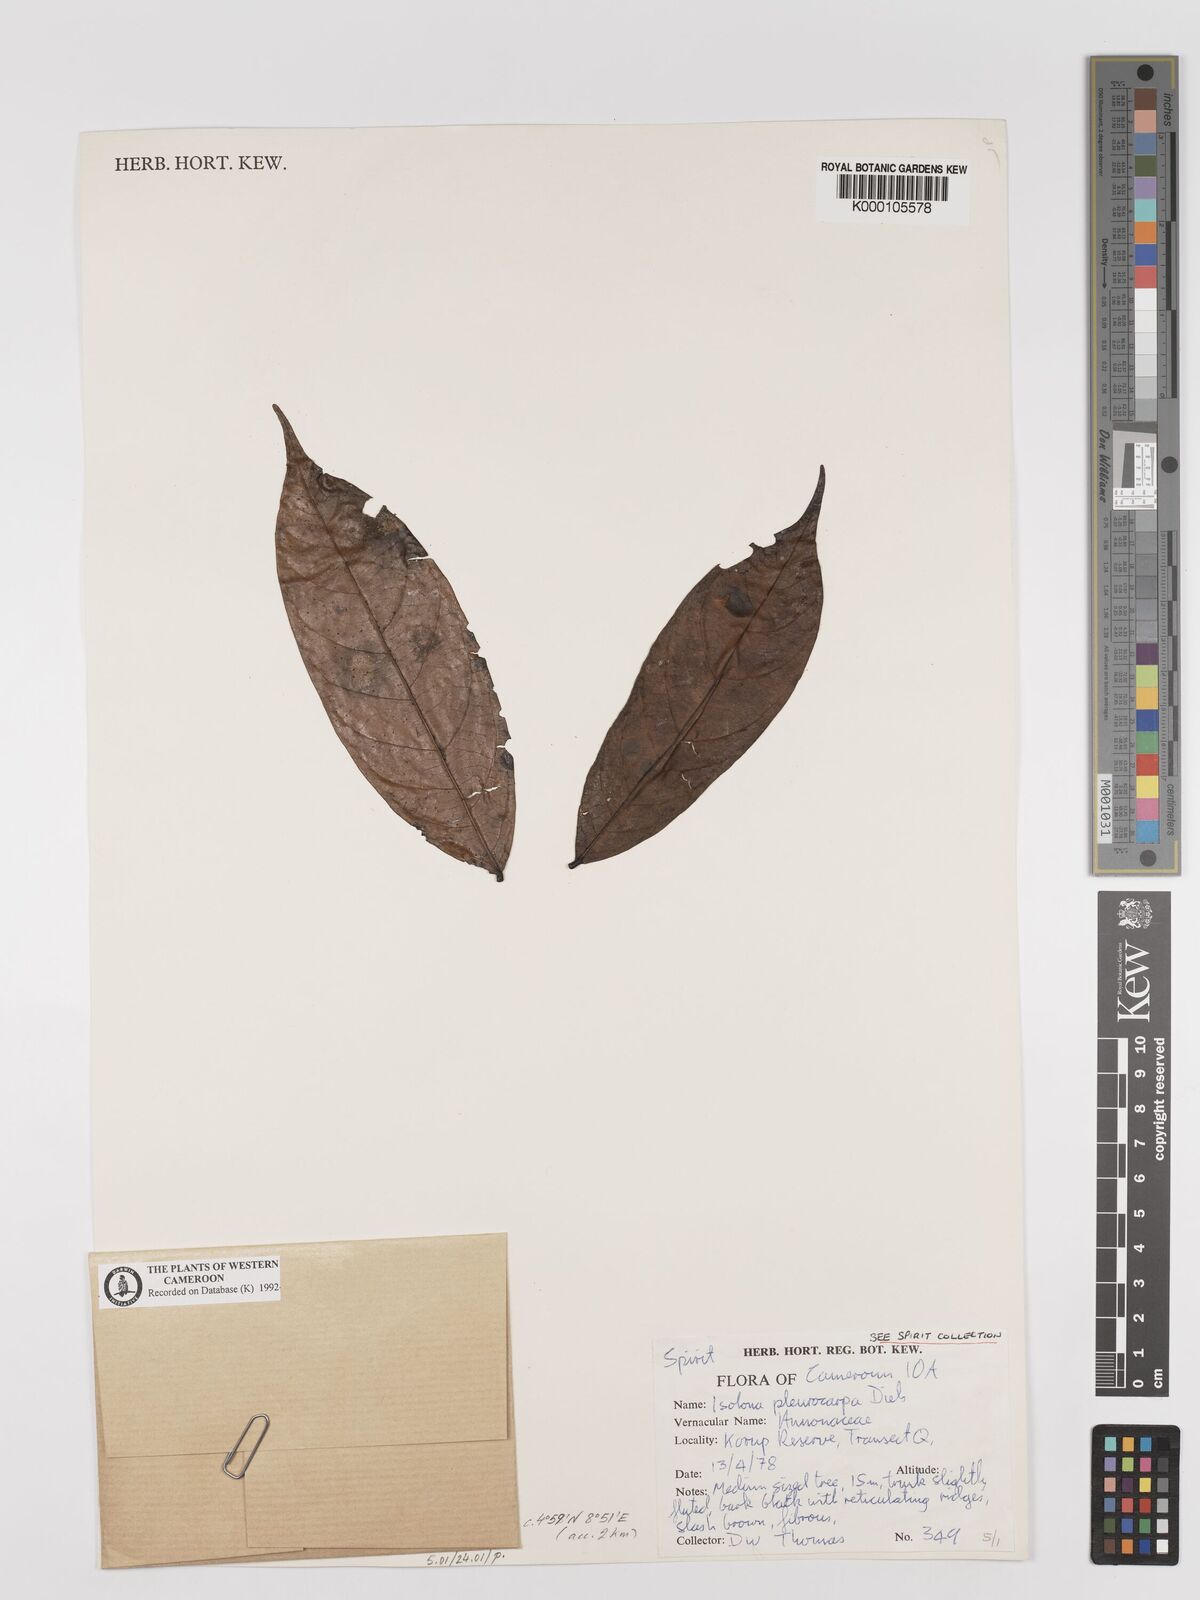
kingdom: Plantae
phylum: Tracheophyta
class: Magnoliopsida
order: Magnoliales
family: Annonaceae
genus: Isolona
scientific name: Isolona pleurocarpa
